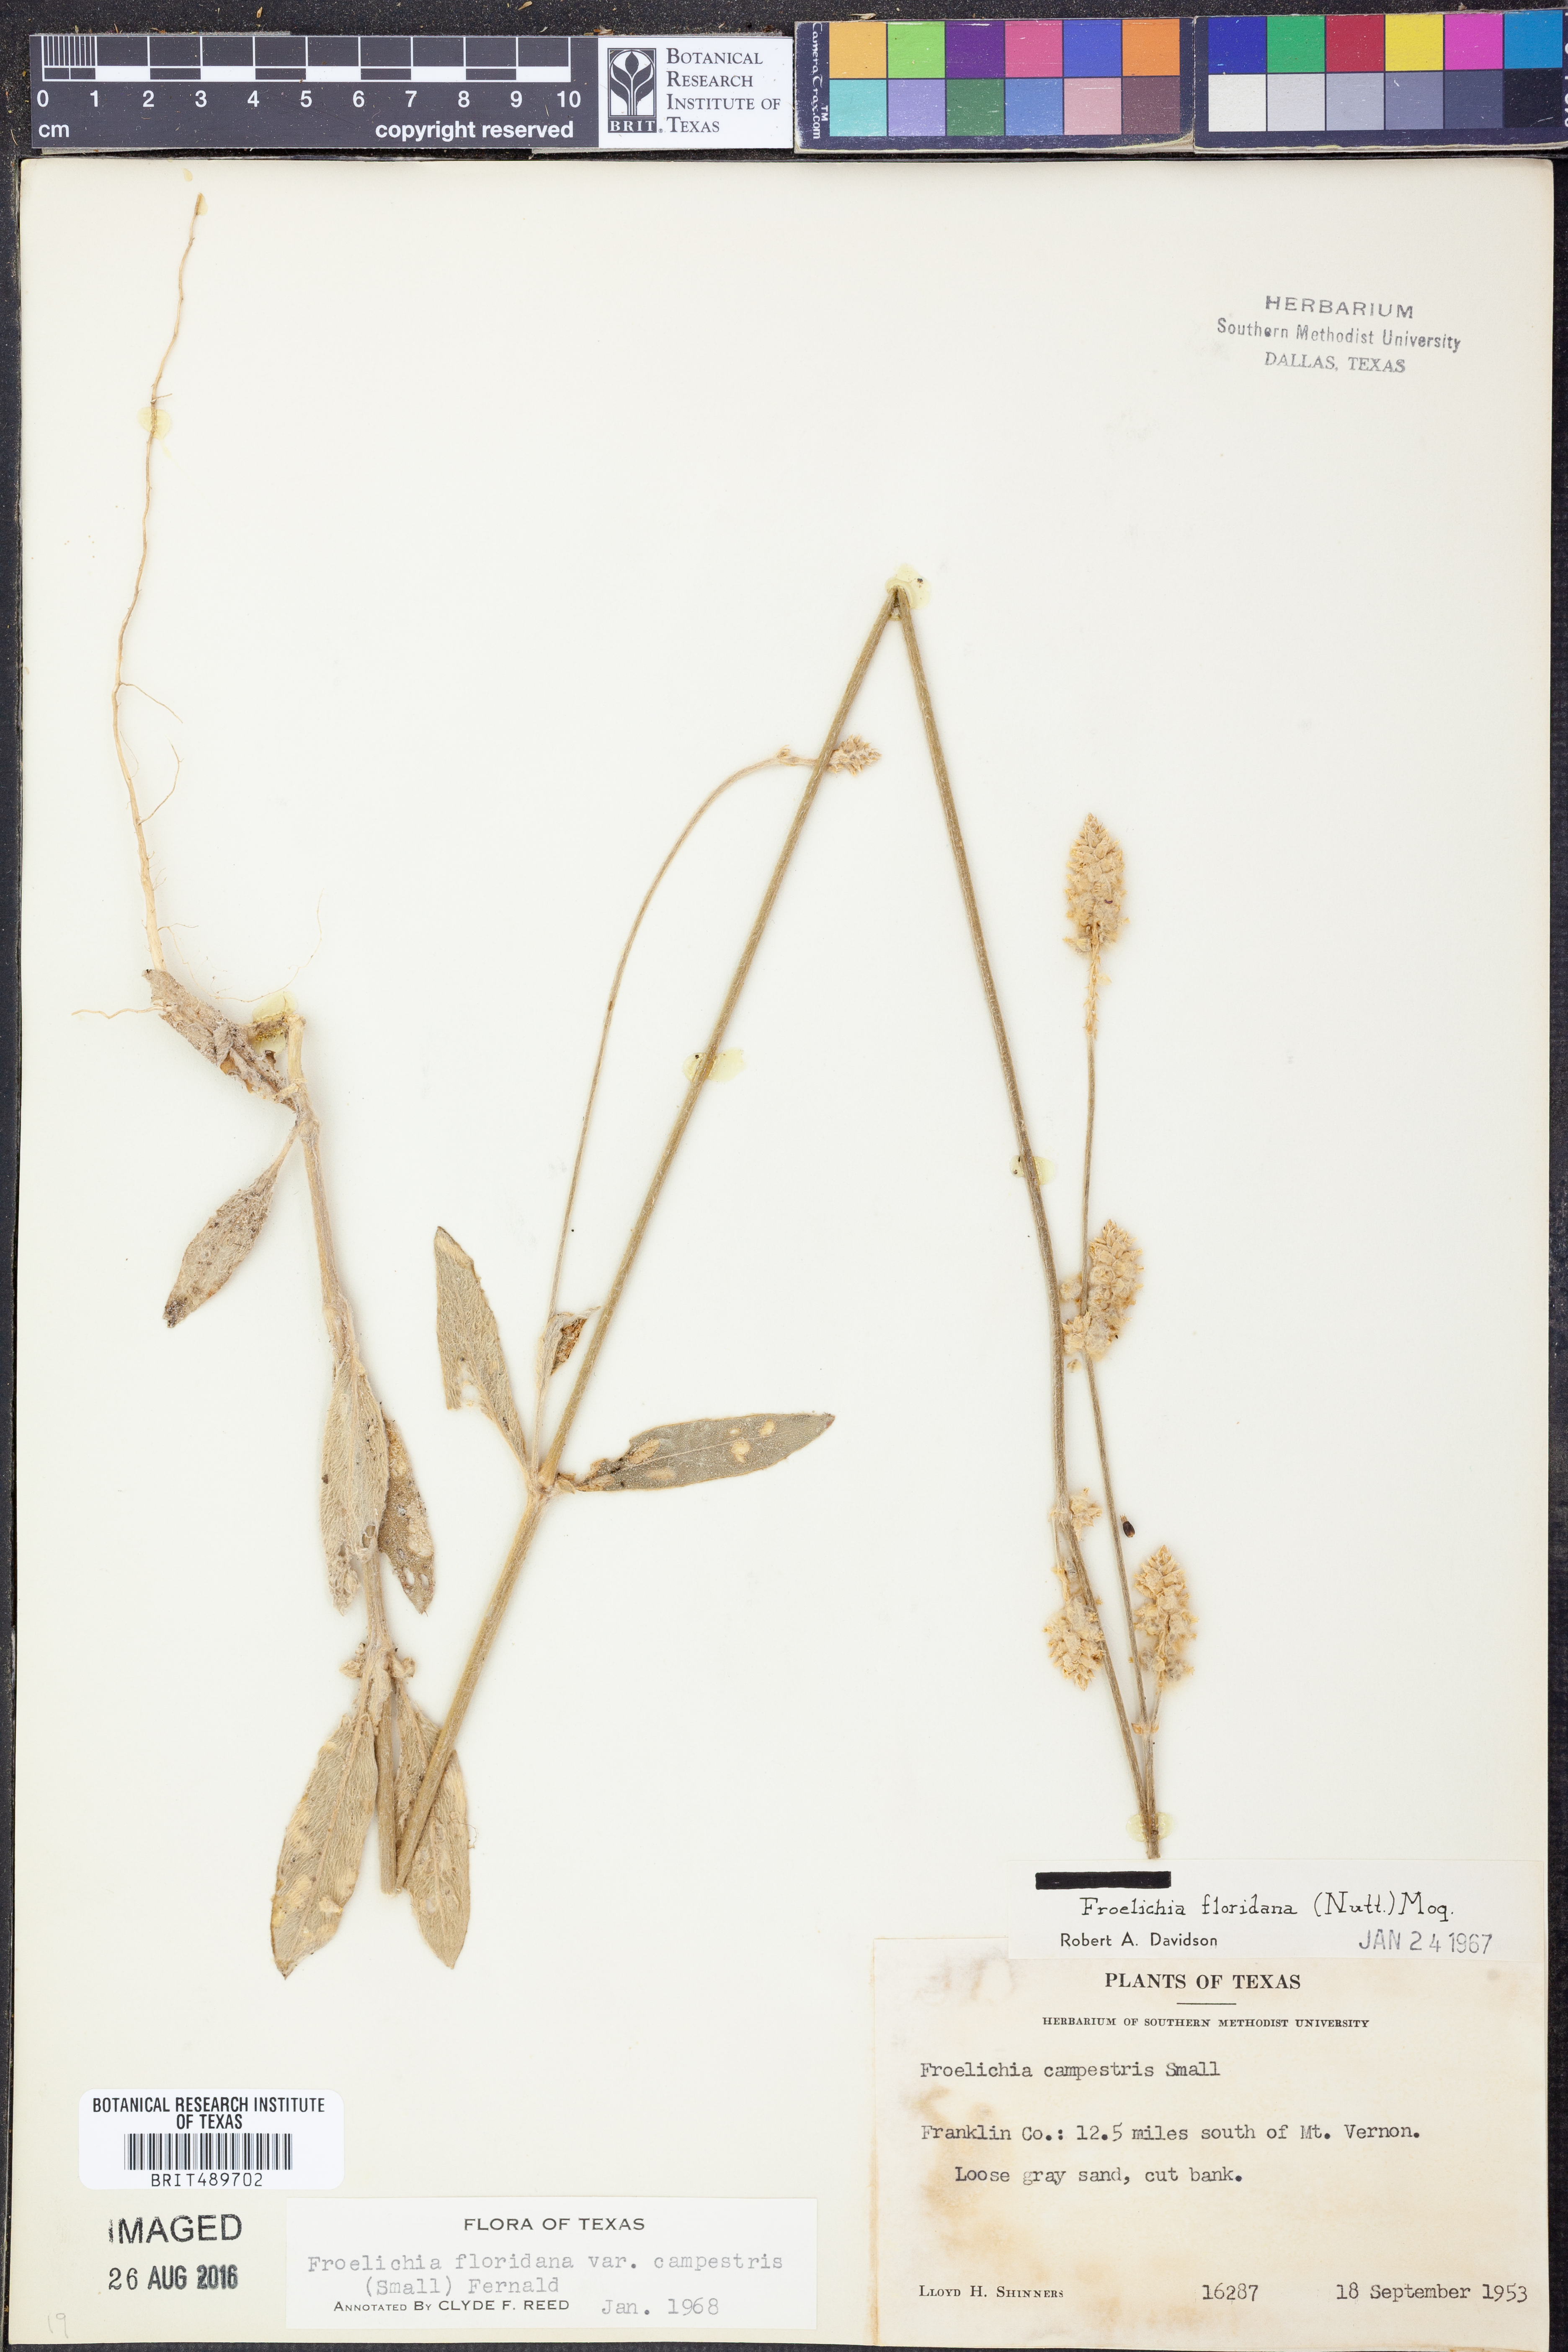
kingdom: Plantae
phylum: Tracheophyta
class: Magnoliopsida
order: Caryophyllales
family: Amaranthaceae
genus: Froelichia
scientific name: Froelichia floridana
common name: Florida snake-cotton
